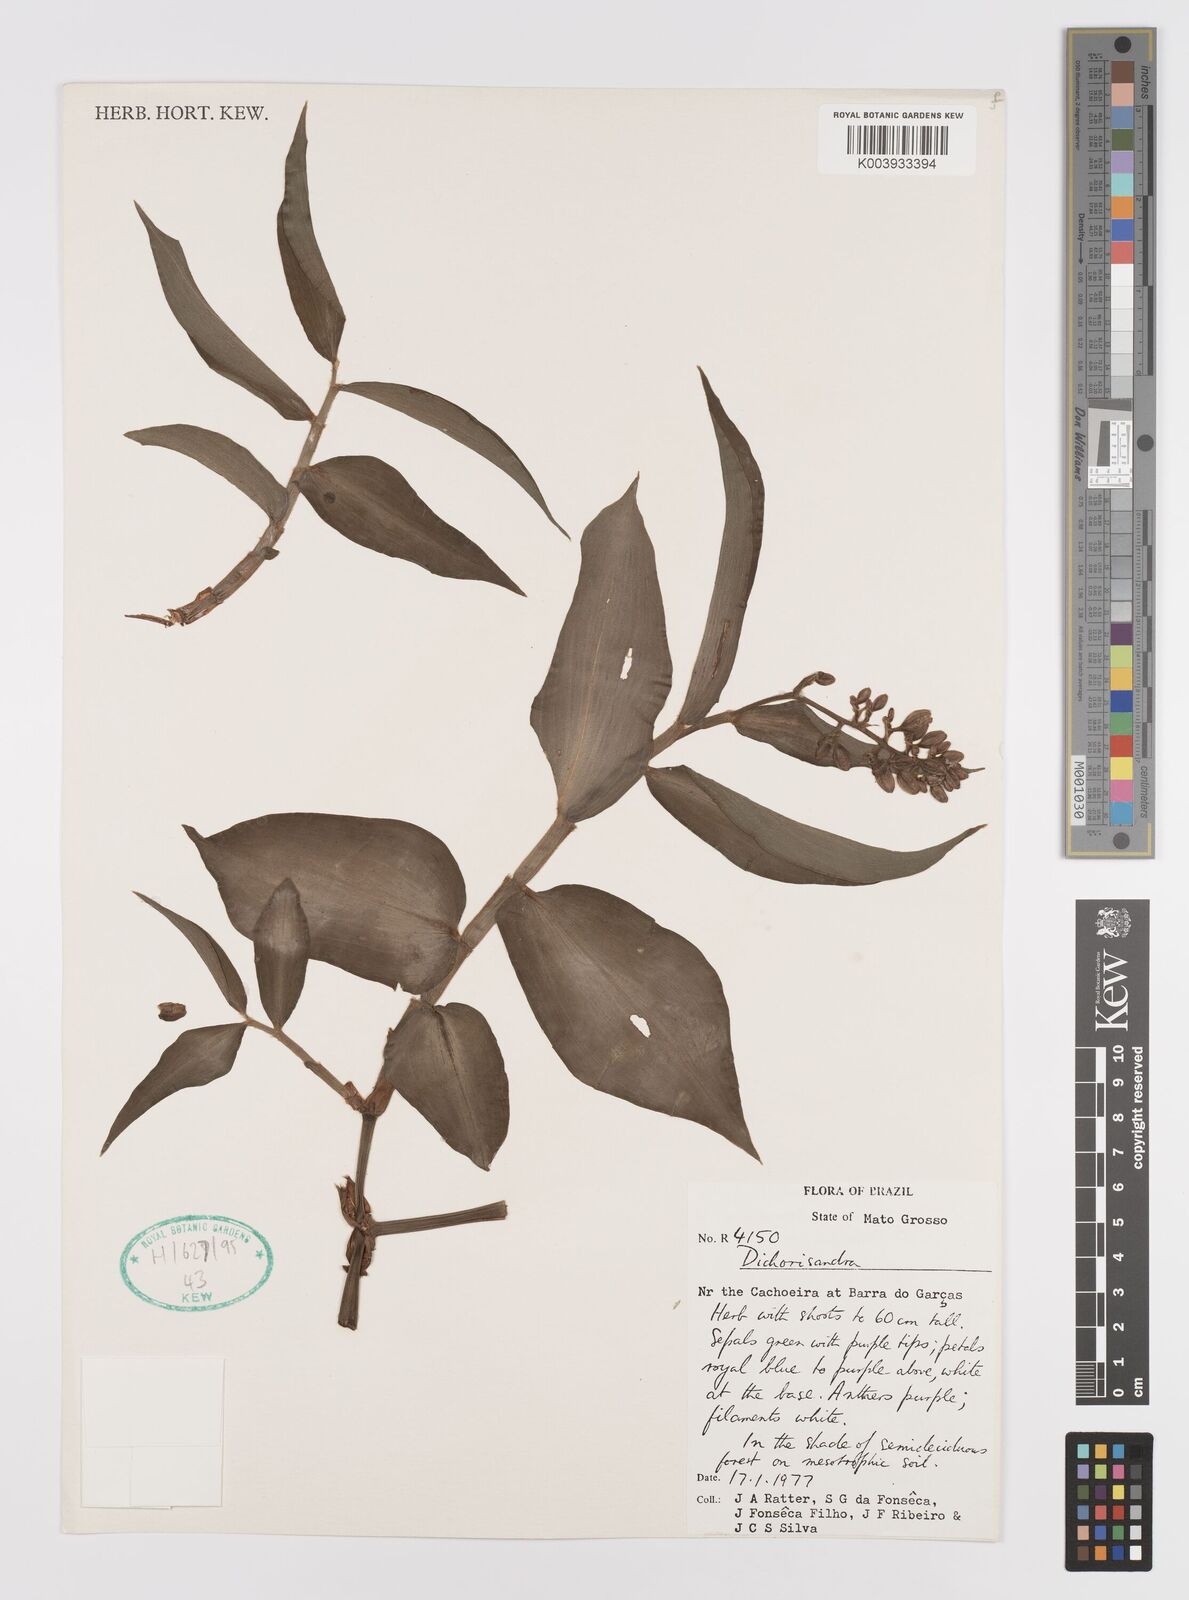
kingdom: Plantae
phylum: Tracheophyta
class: Liliopsida
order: Commelinales
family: Commelinaceae
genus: Dichorisandra
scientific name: Dichorisandra
